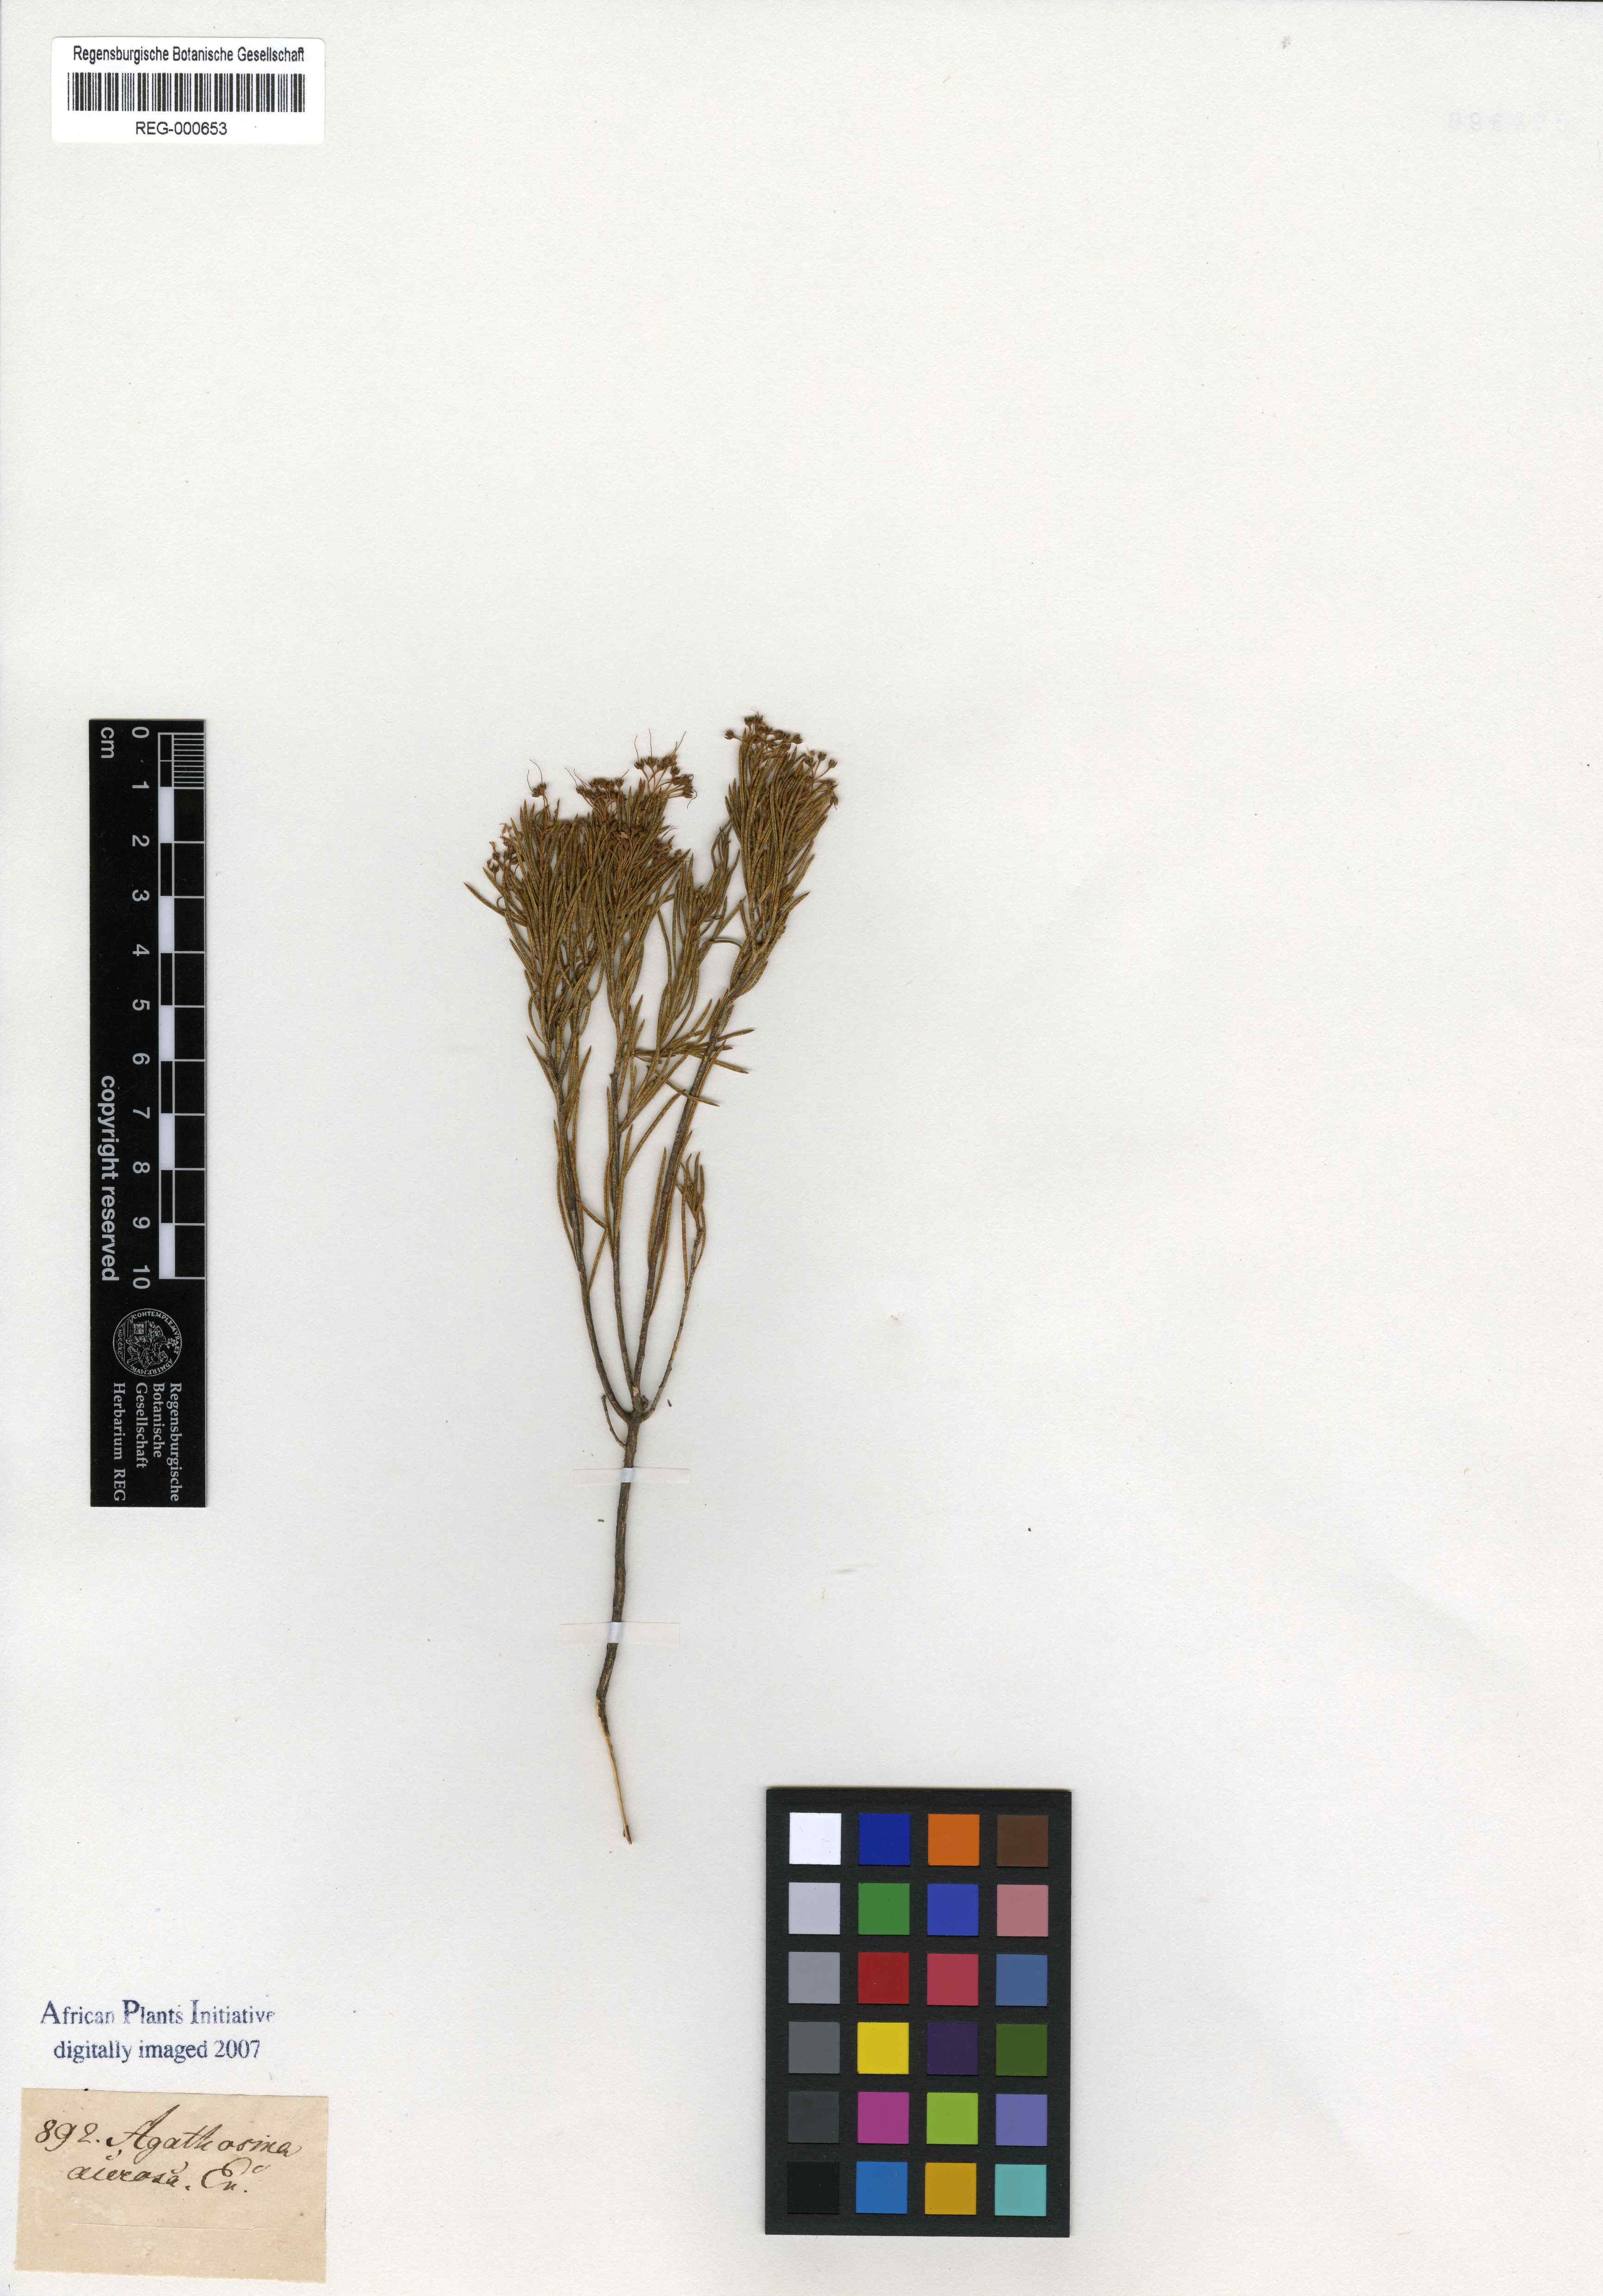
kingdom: Plantae
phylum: Tracheophyta
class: Magnoliopsida
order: Sapindales
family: Rutaceae
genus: Agathosma
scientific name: Agathosma bisulca
